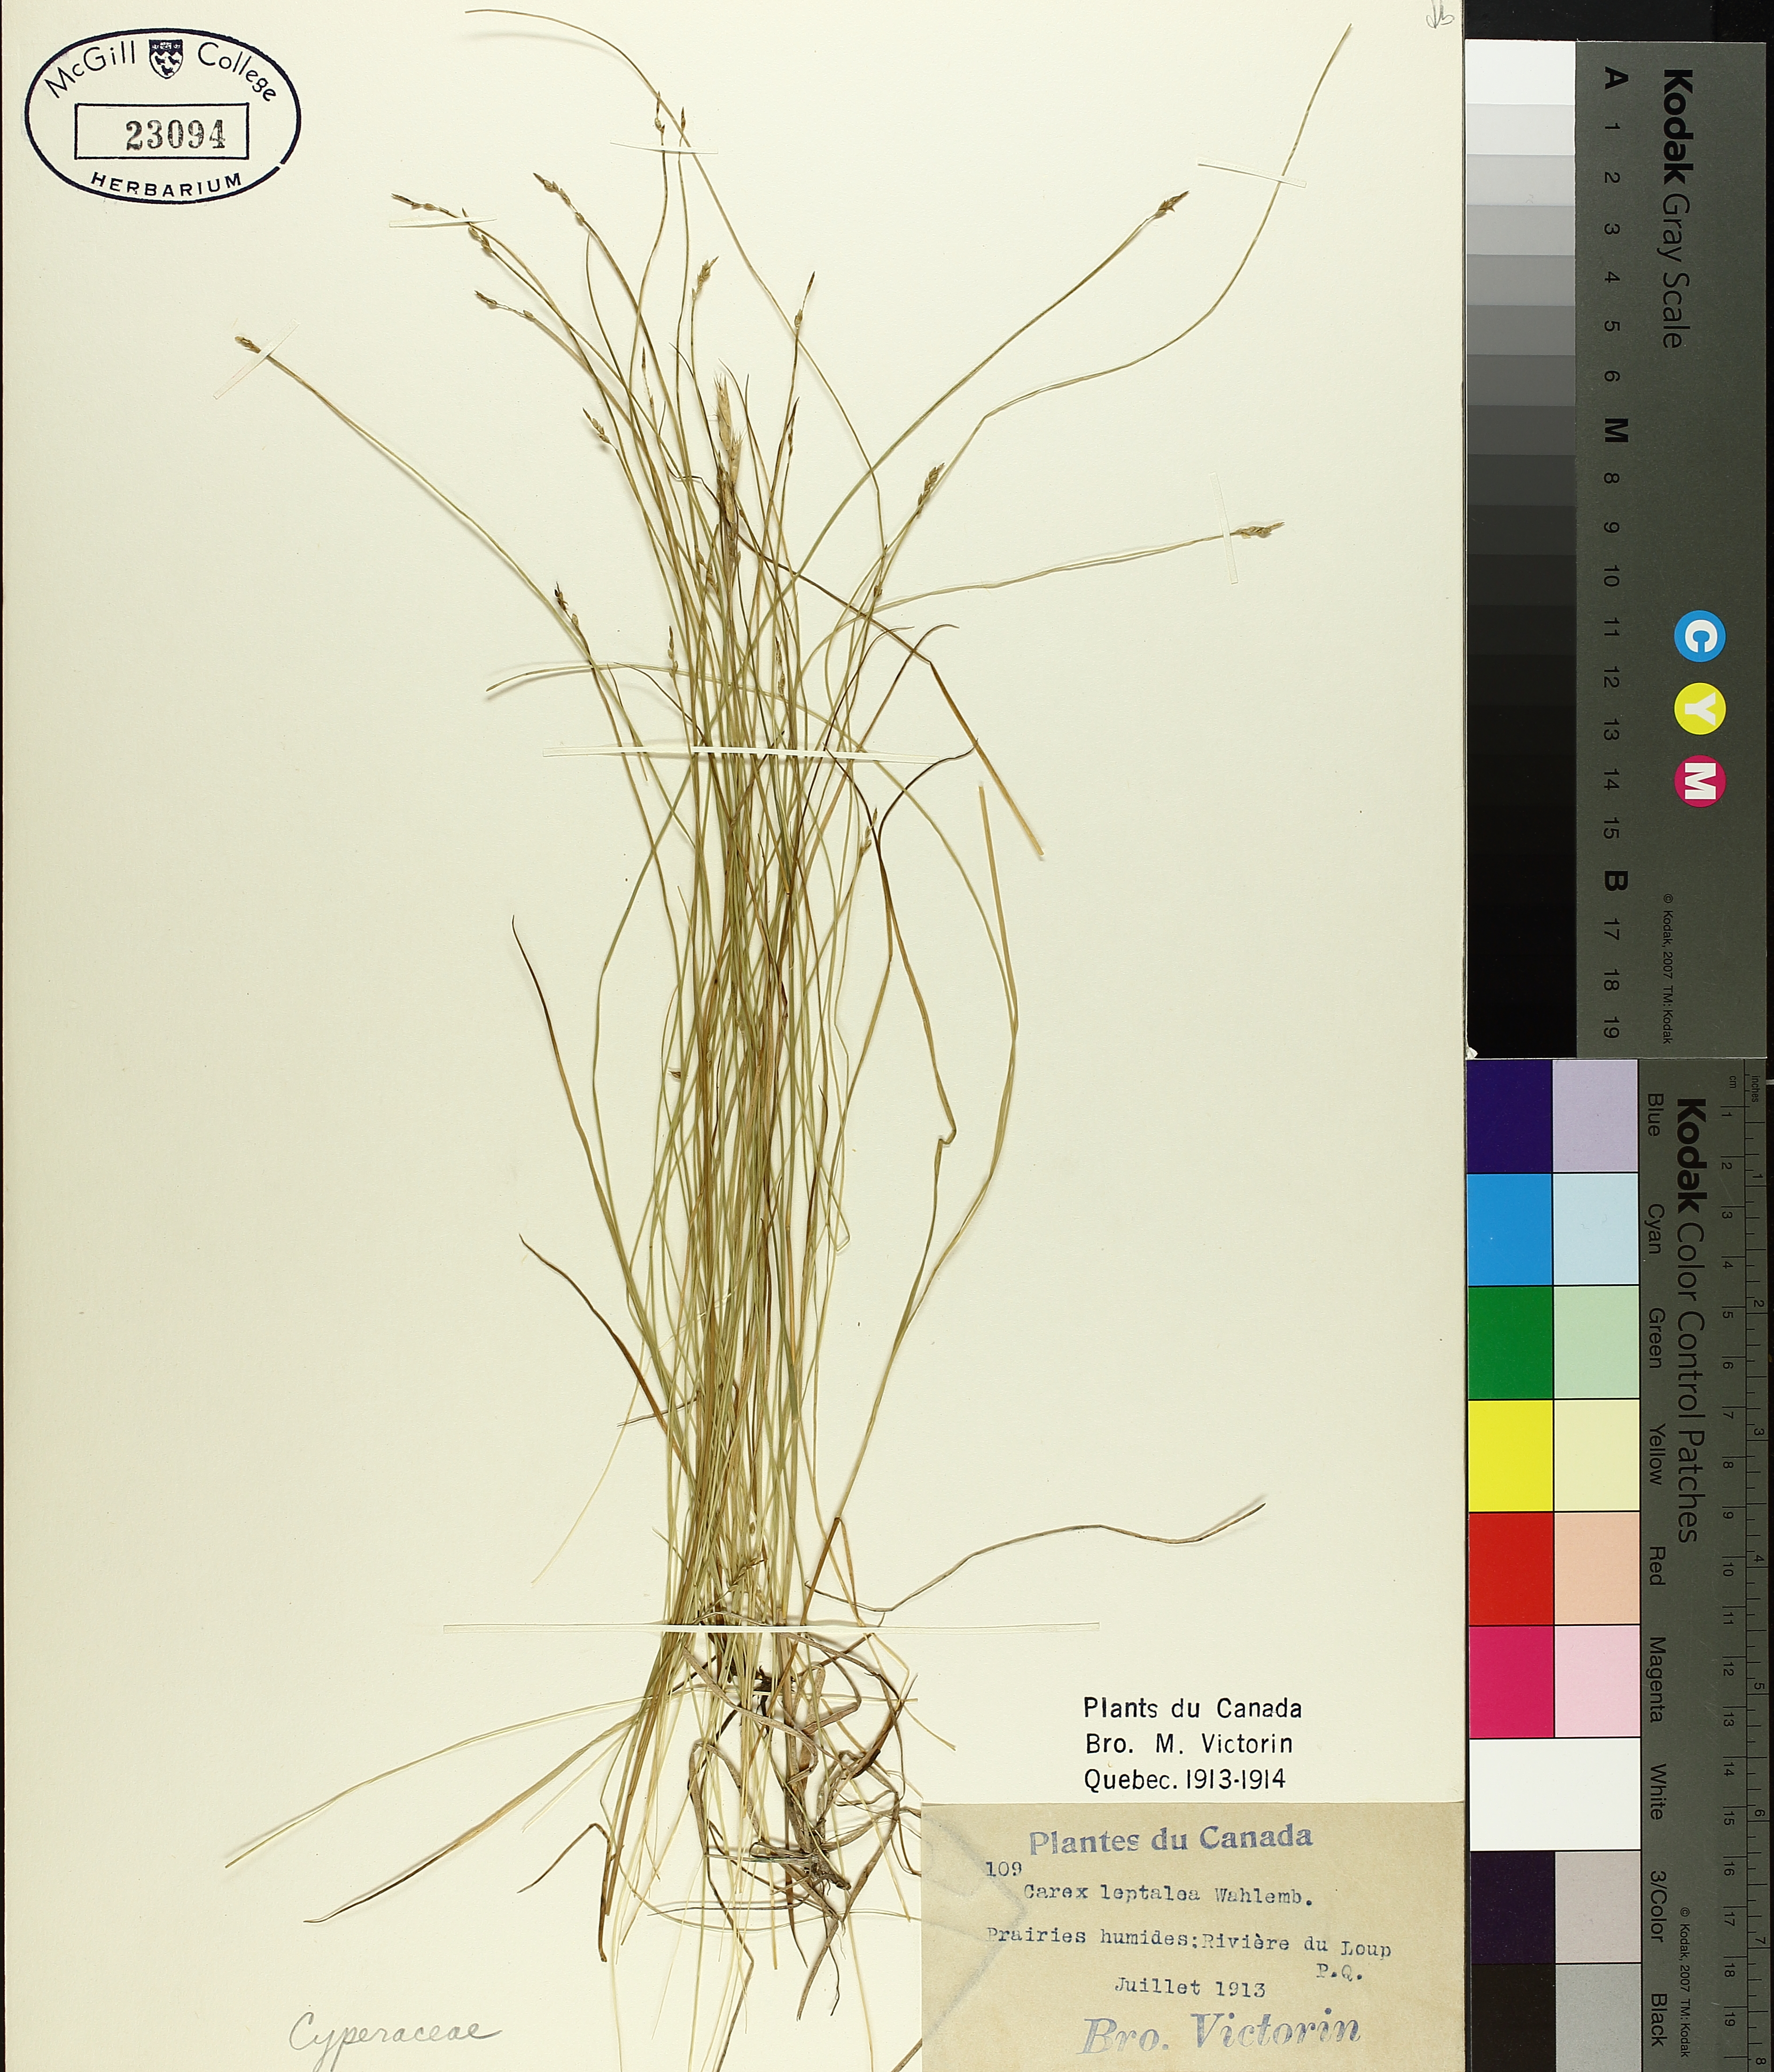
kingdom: Plantae
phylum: Tracheophyta
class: Liliopsida
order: Poales
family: Cyperaceae
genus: Carex
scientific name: Carex leptalea
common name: Bristly-stalked sedge
